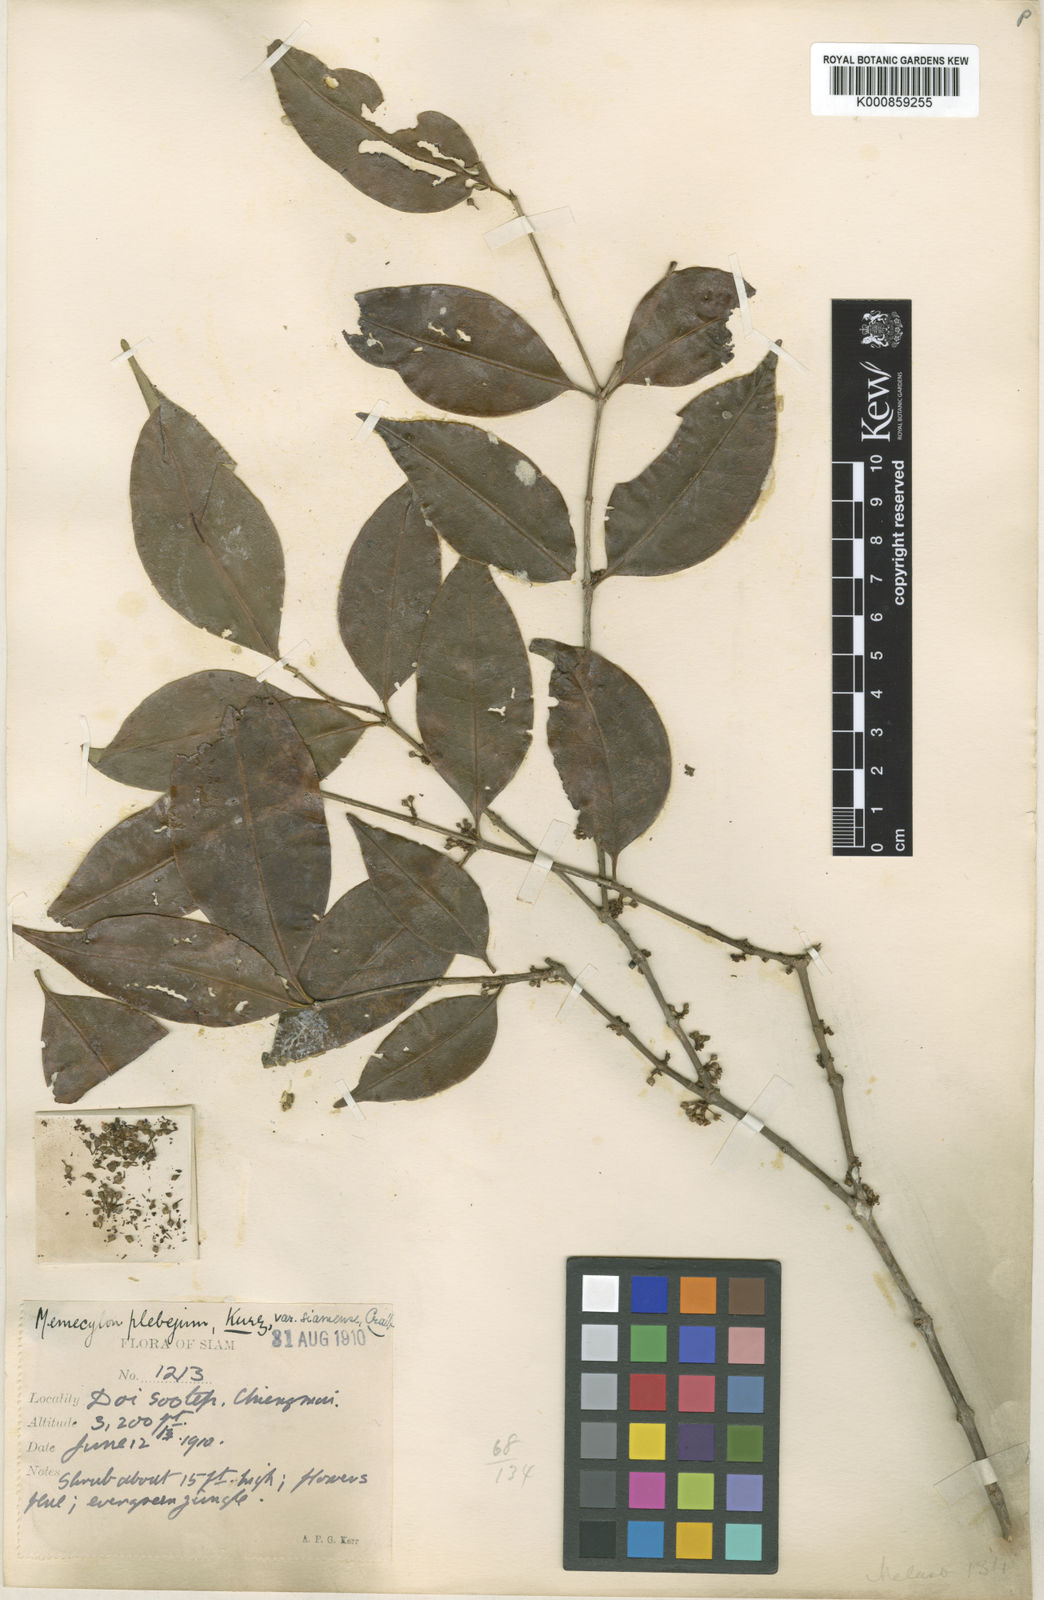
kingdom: Plantae
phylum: Tracheophyta
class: Magnoliopsida
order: Myrtales
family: Melastomataceae
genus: Memecylon
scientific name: Memecylon plebejum
